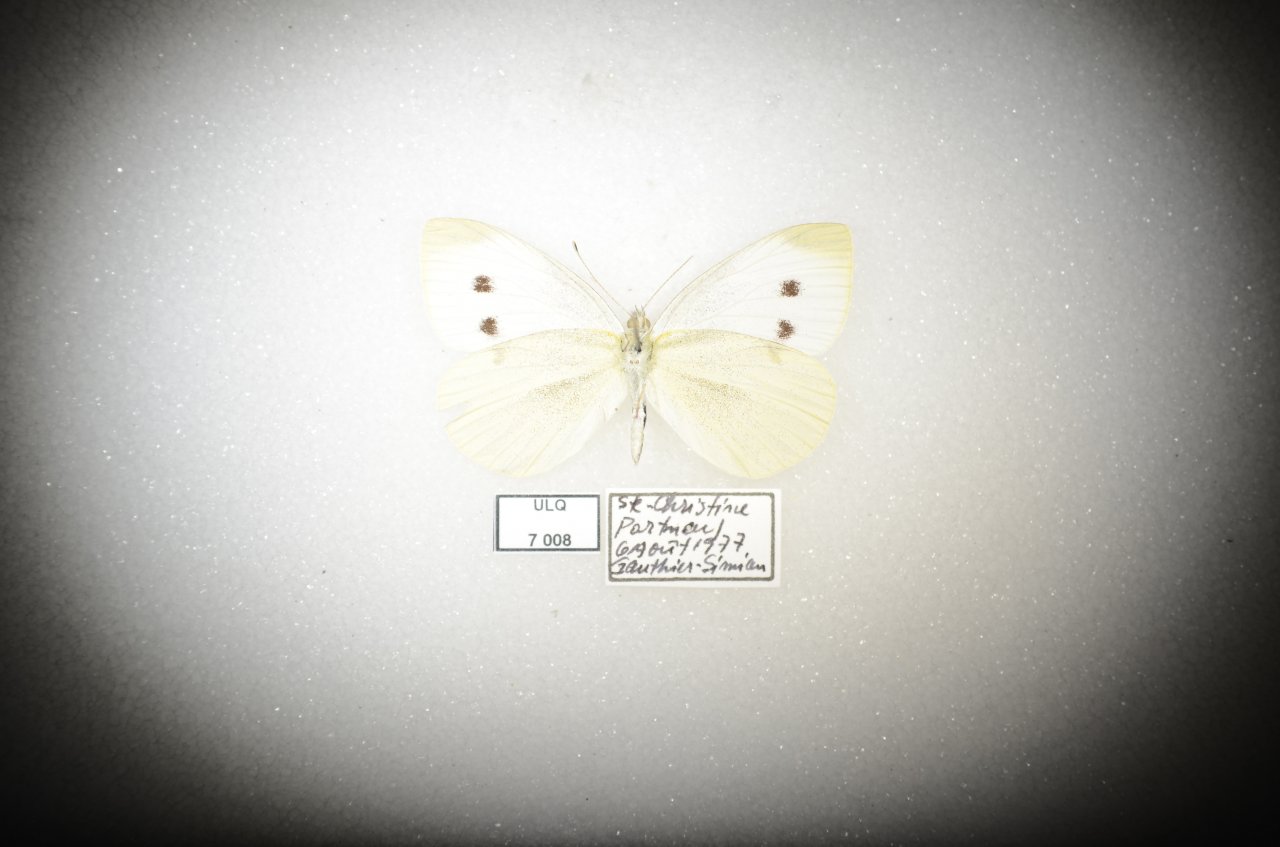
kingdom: Animalia
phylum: Arthropoda
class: Insecta
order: Lepidoptera
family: Pieridae
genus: Pieris
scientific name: Pieris rapae
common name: Cabbage White
